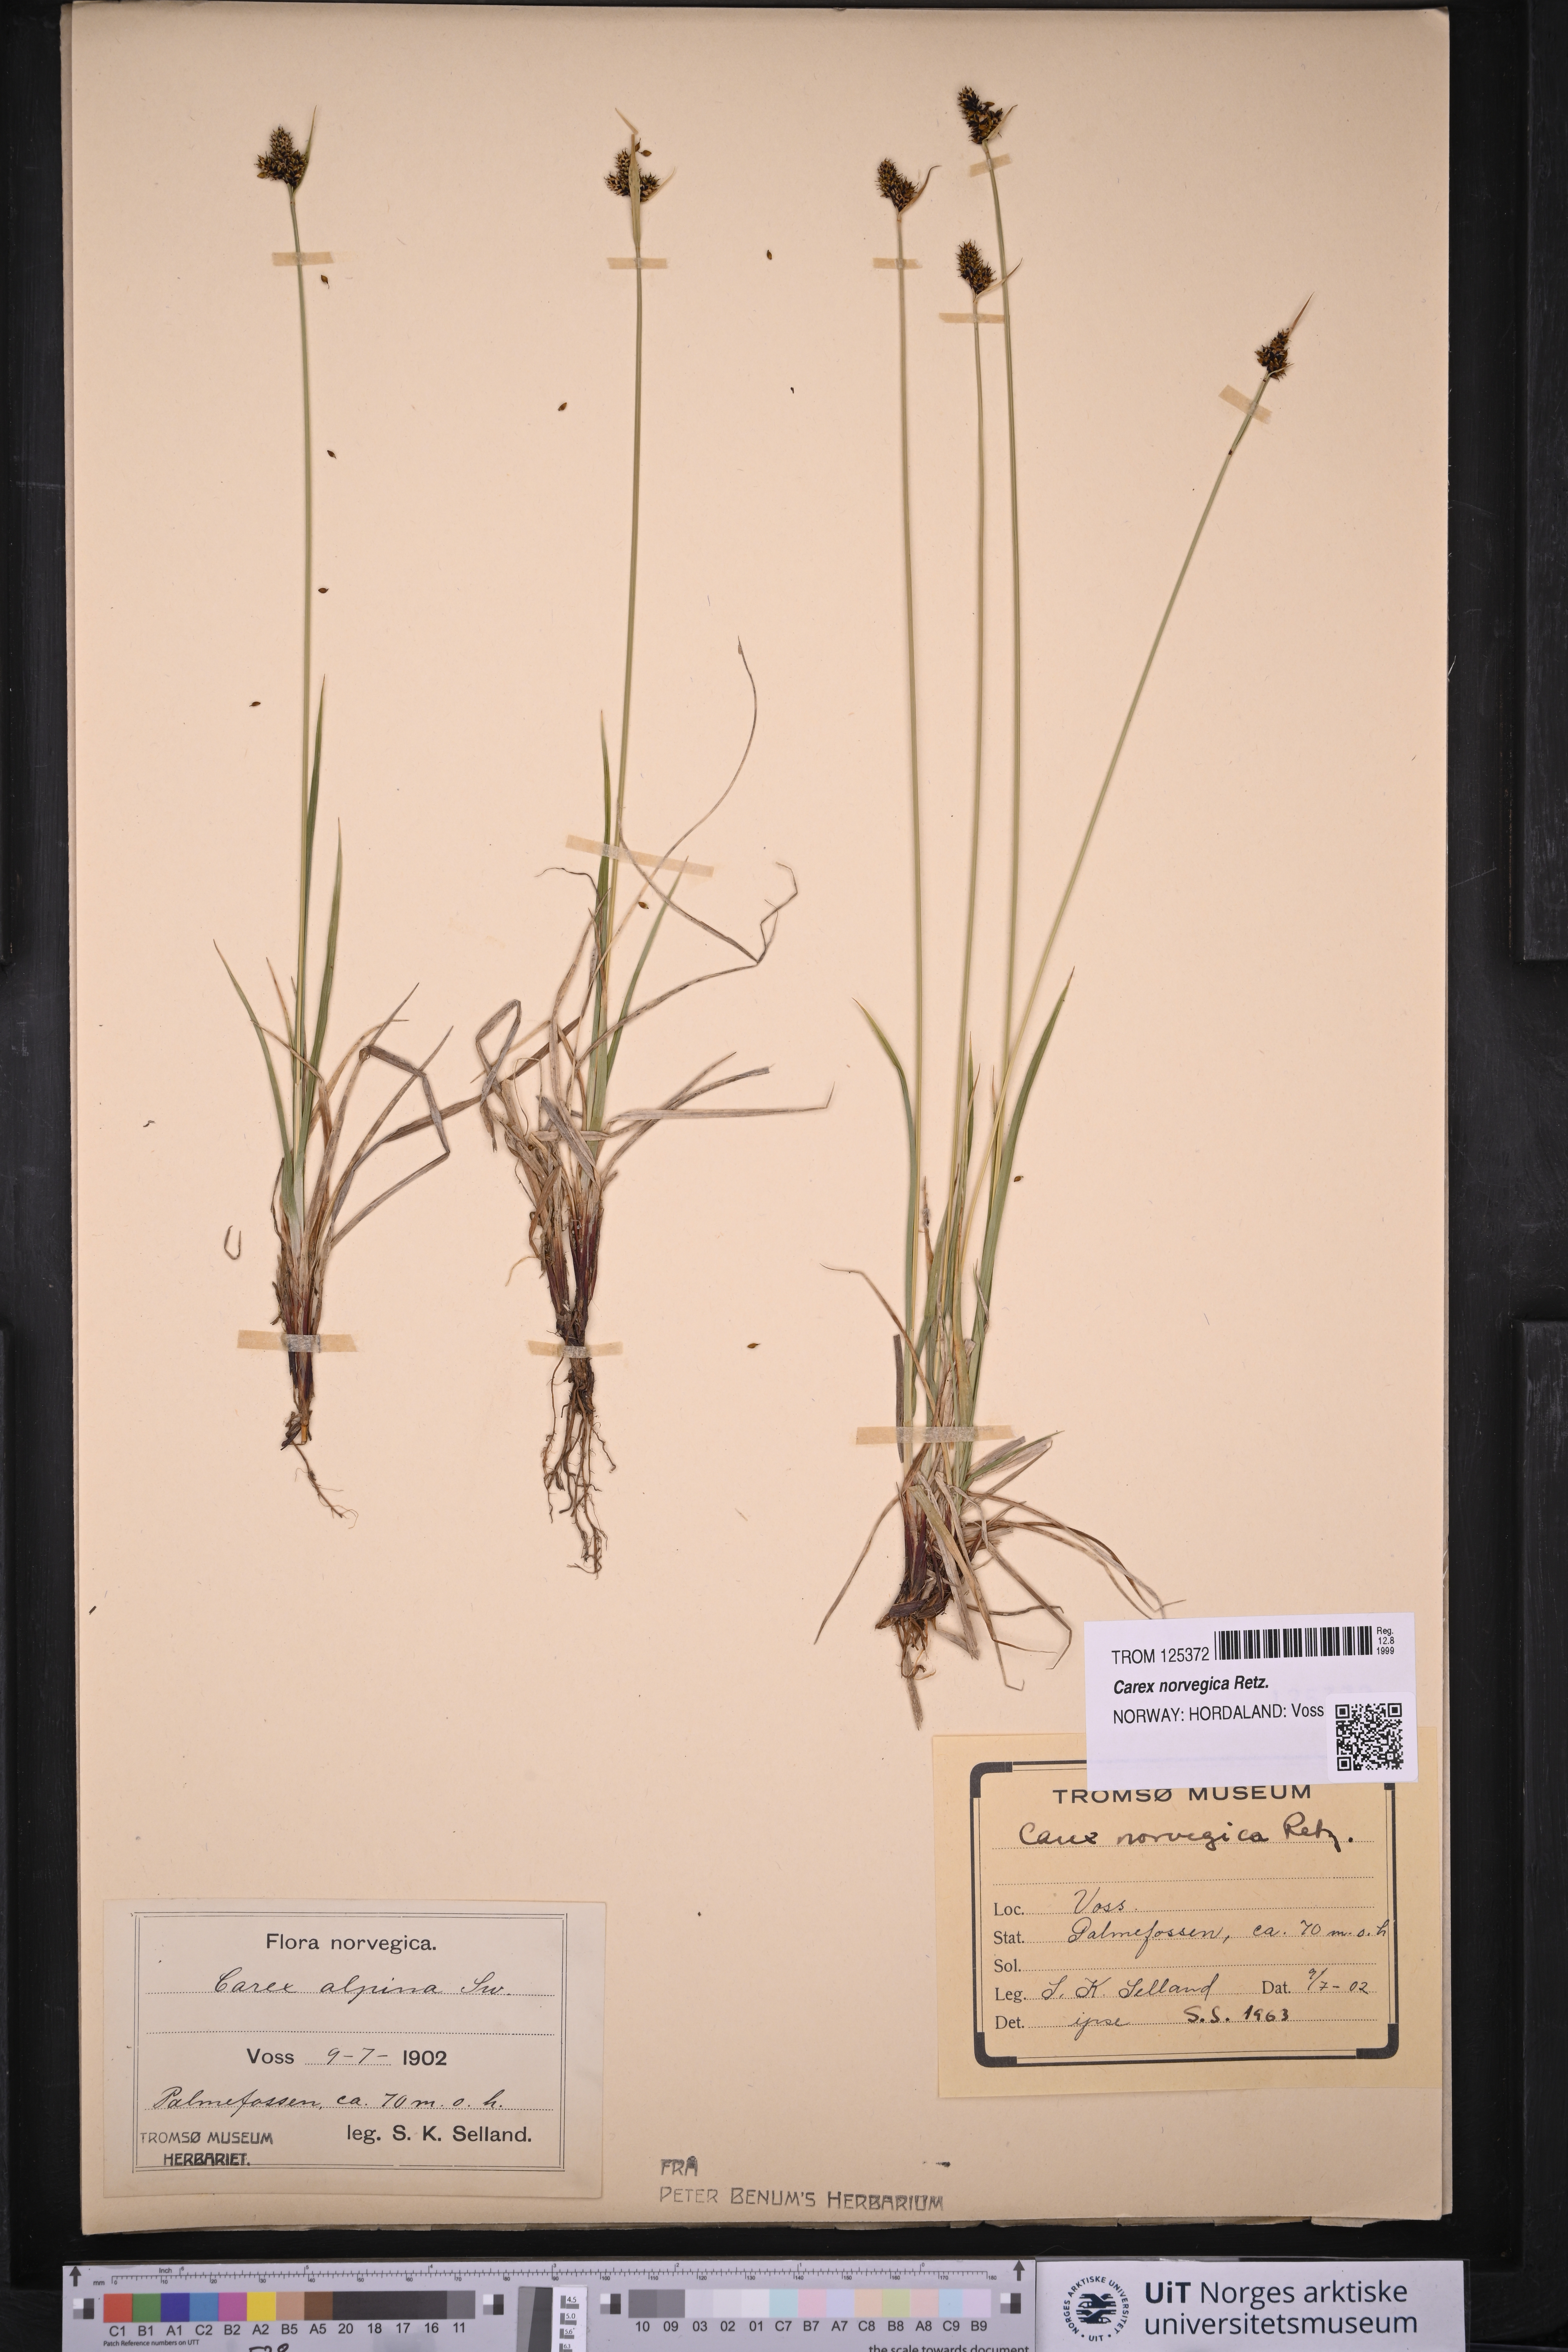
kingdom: Plantae
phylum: Tracheophyta
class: Liliopsida
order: Poales
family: Cyperaceae
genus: Carex
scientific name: Carex norvegica
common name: Close-headed alpine-sedge
